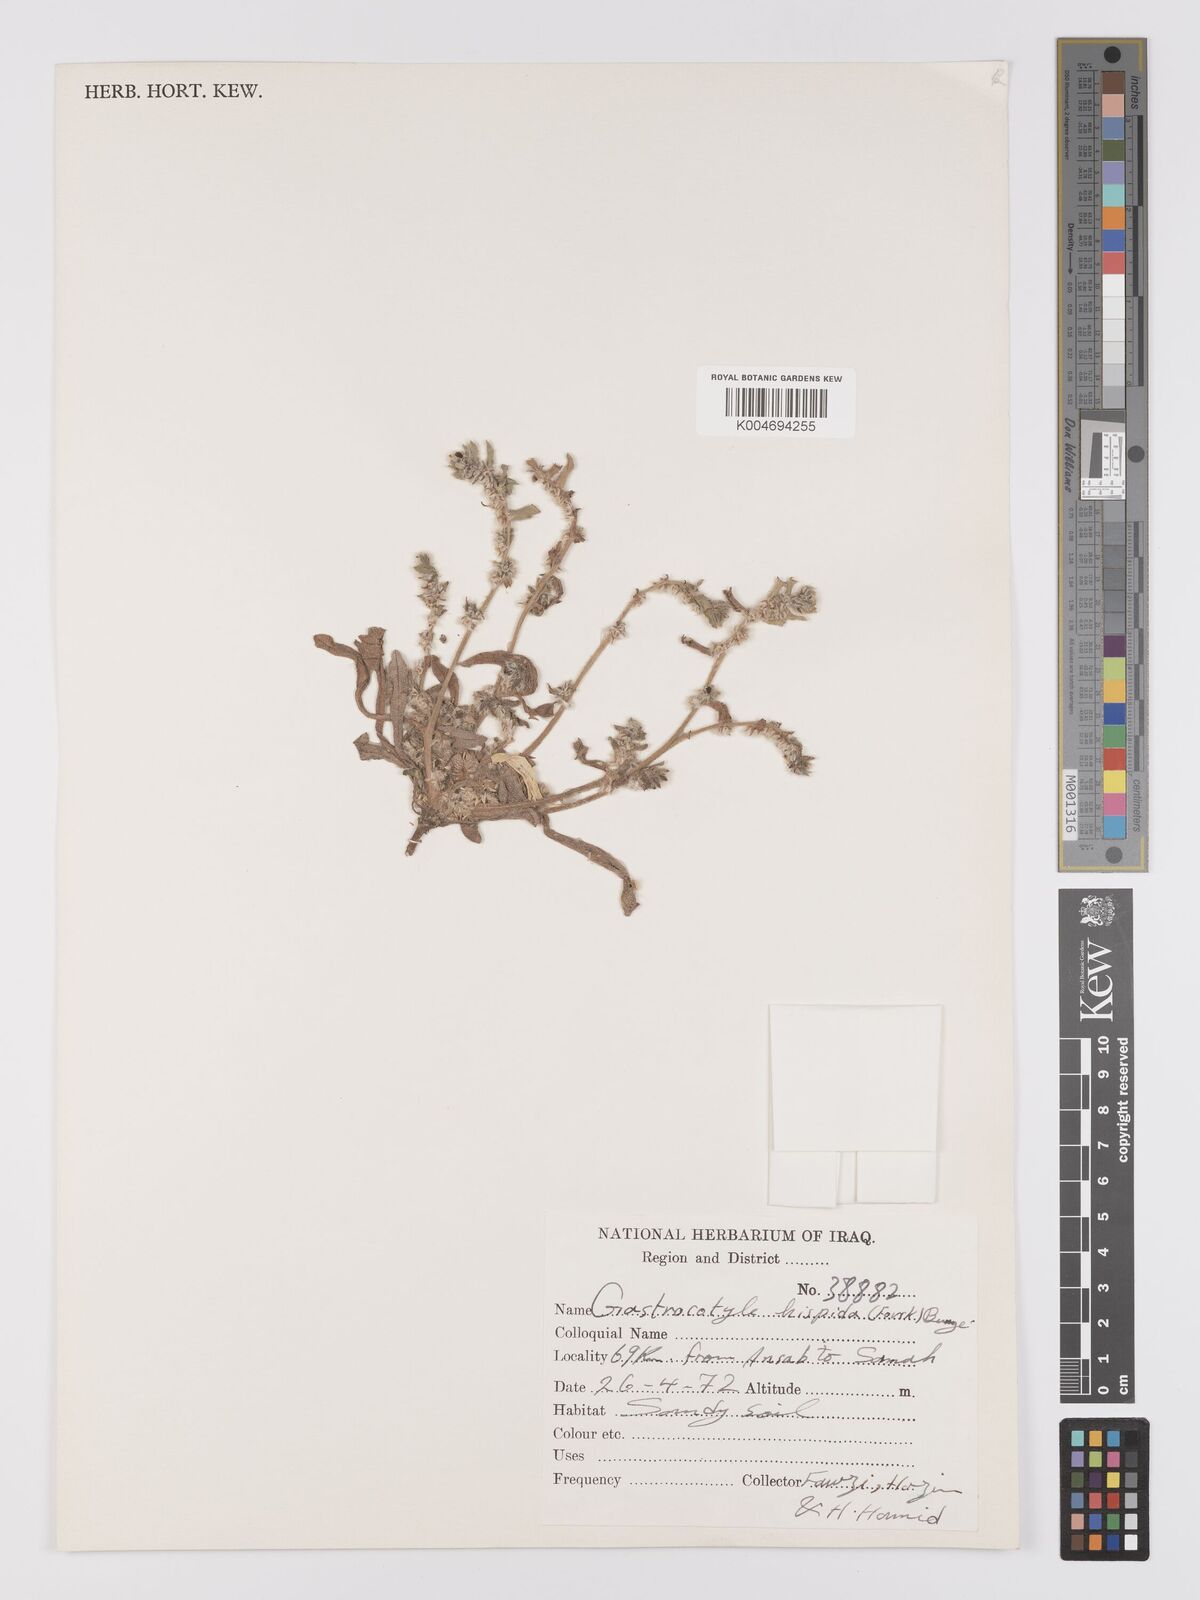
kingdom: Plantae
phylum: Tracheophyta
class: Magnoliopsida
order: Boraginales
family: Boraginaceae
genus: Gastrocotyle
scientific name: Gastrocotyle hispida
